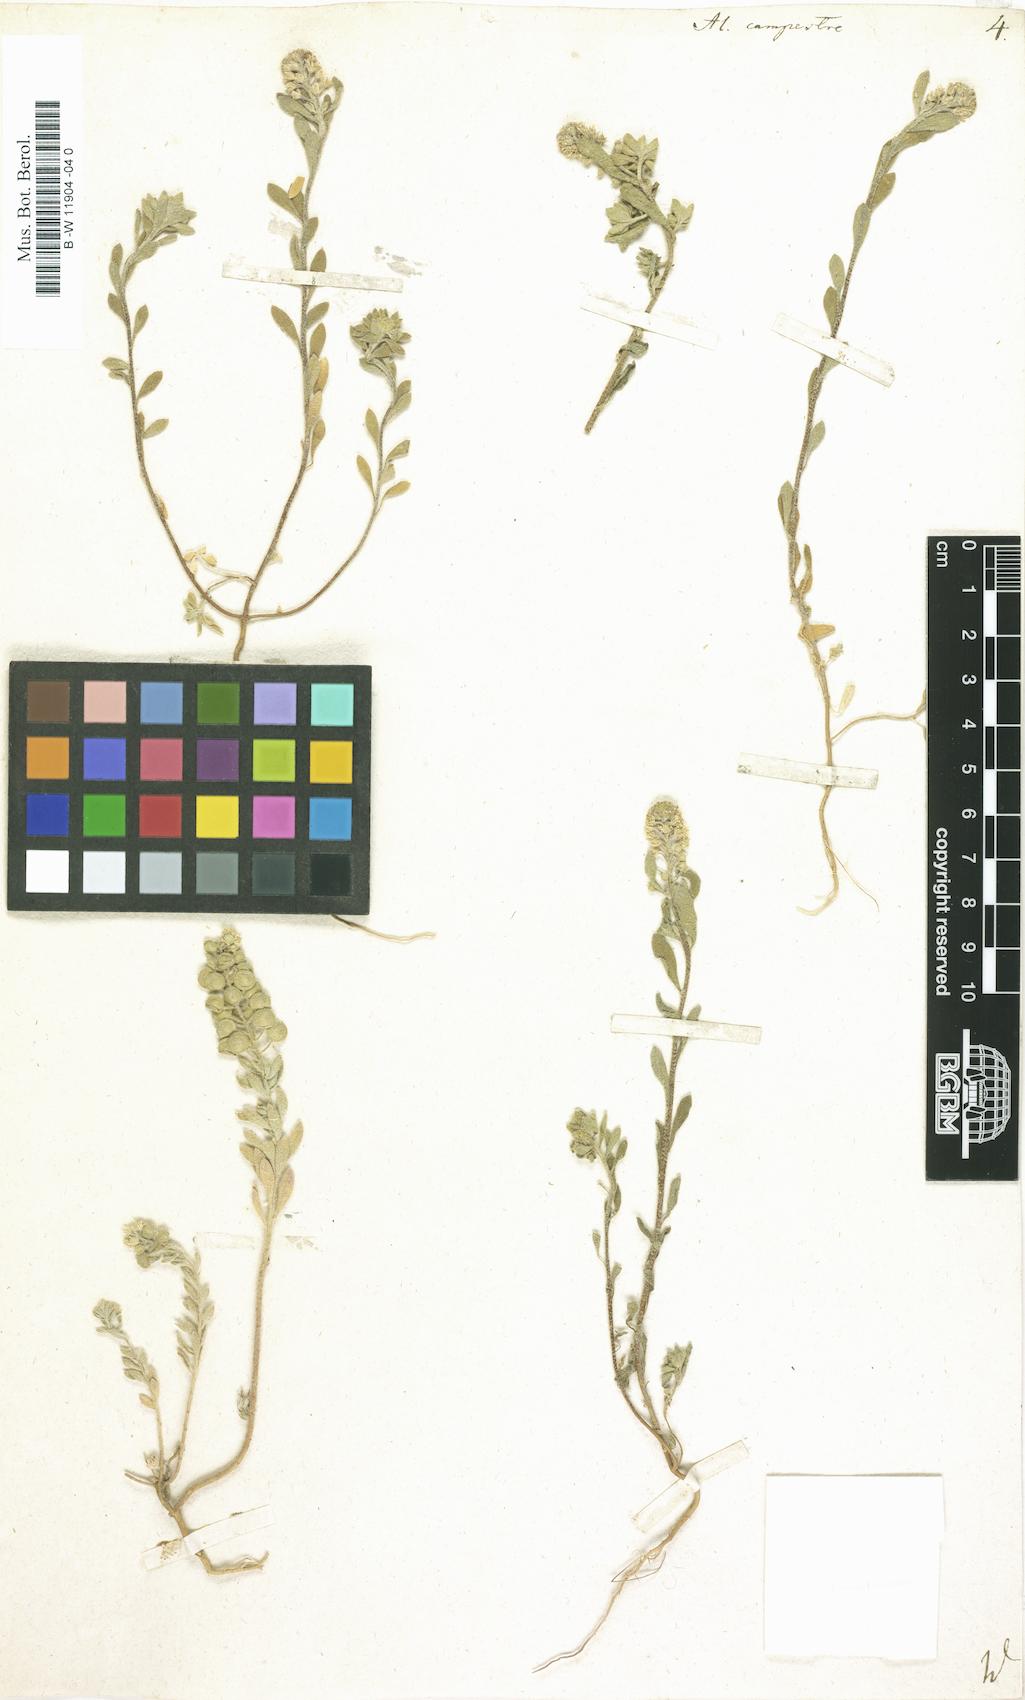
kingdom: Plantae
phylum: Tracheophyta
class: Magnoliopsida
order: Brassicales
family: Brassicaceae
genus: Alyssum
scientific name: Alyssum alyssoides
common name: Small alison
